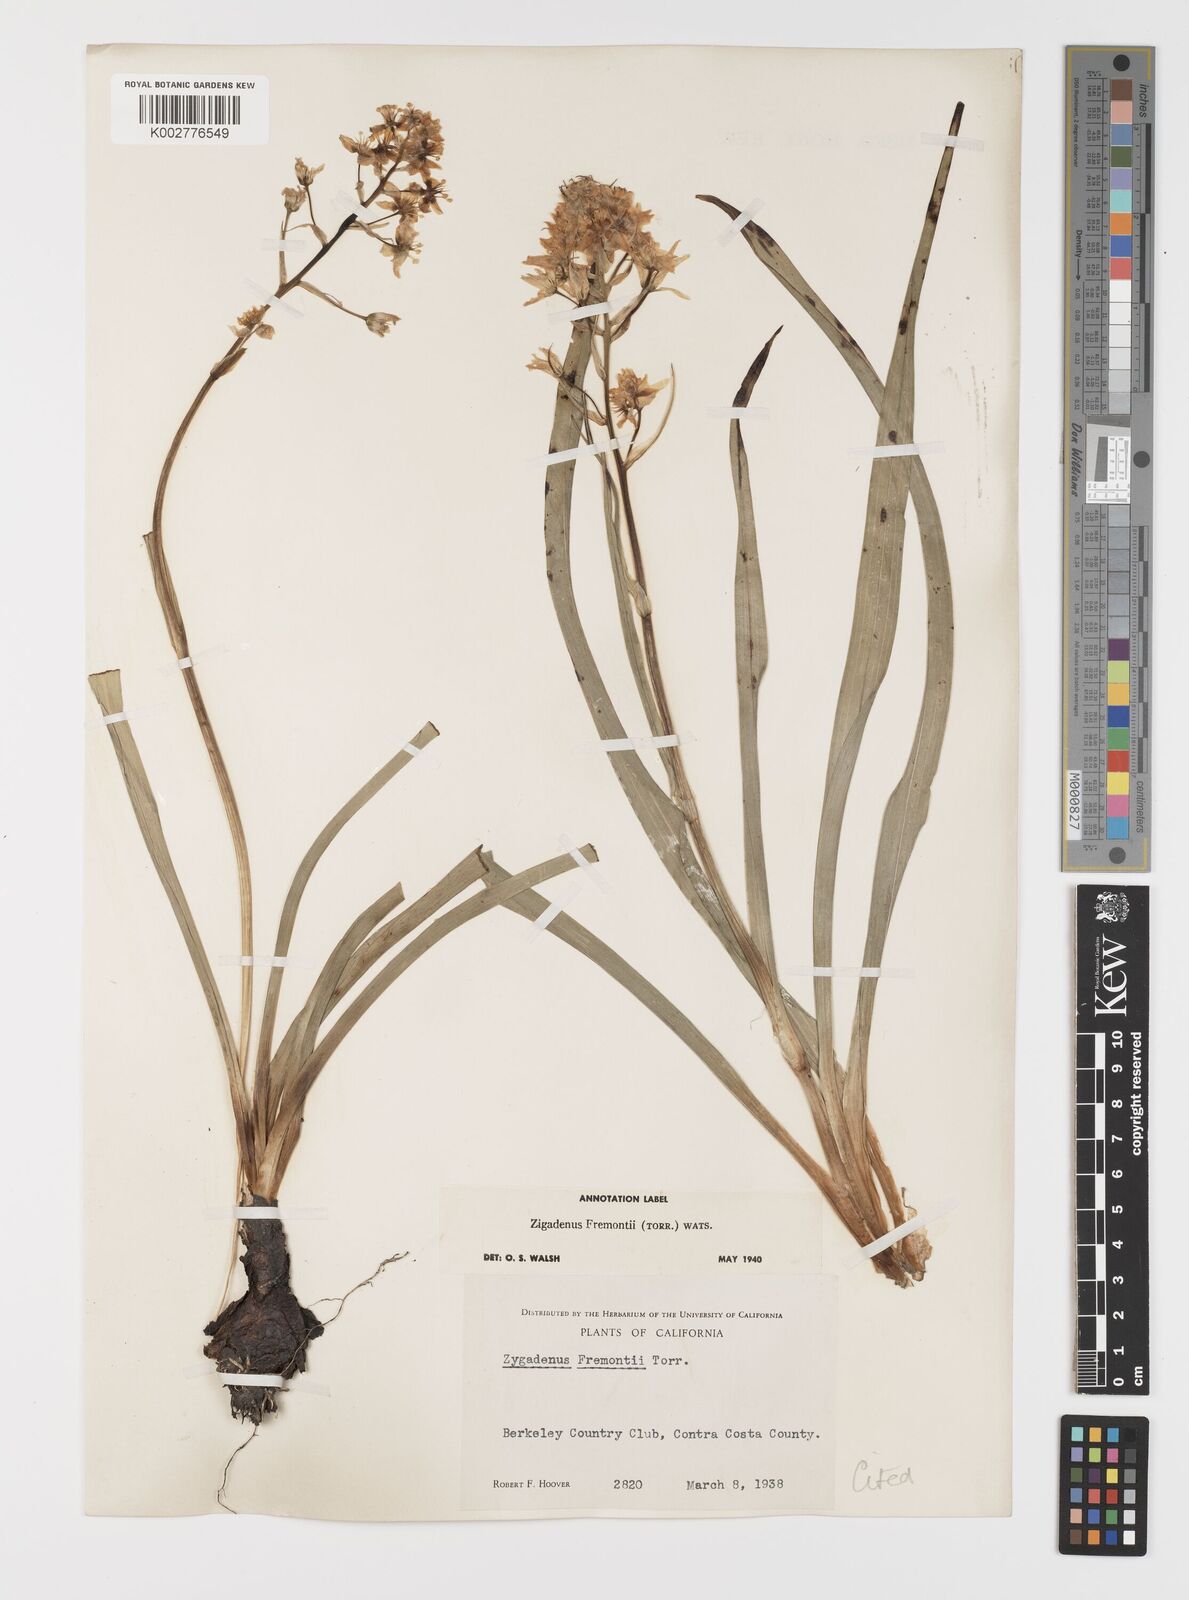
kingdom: Plantae
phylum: Tracheophyta
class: Liliopsida
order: Liliales
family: Melanthiaceae
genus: Toxicoscordion
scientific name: Toxicoscordion fremontii
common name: Fremont's death camas
